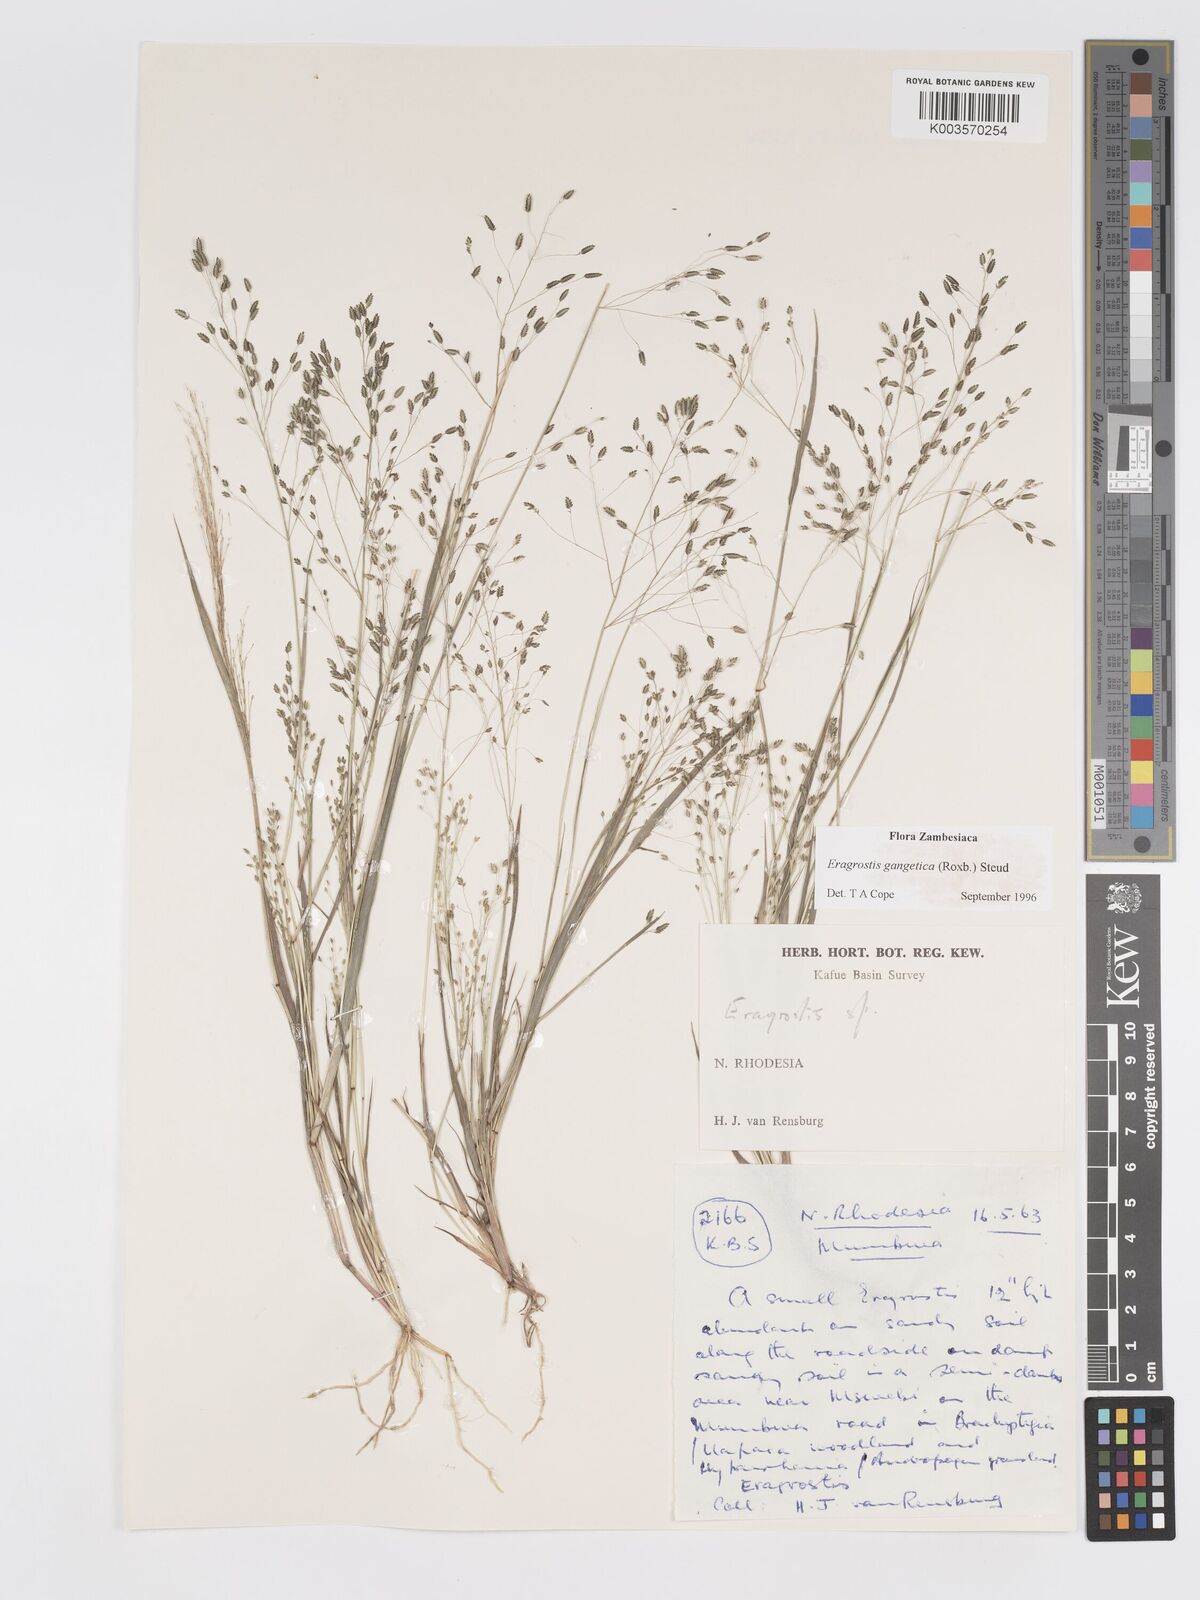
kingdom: Plantae
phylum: Tracheophyta
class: Liliopsida
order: Poales
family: Poaceae
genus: Eragrostis
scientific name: Eragrostis gangetica
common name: Slimflower lovegrass
